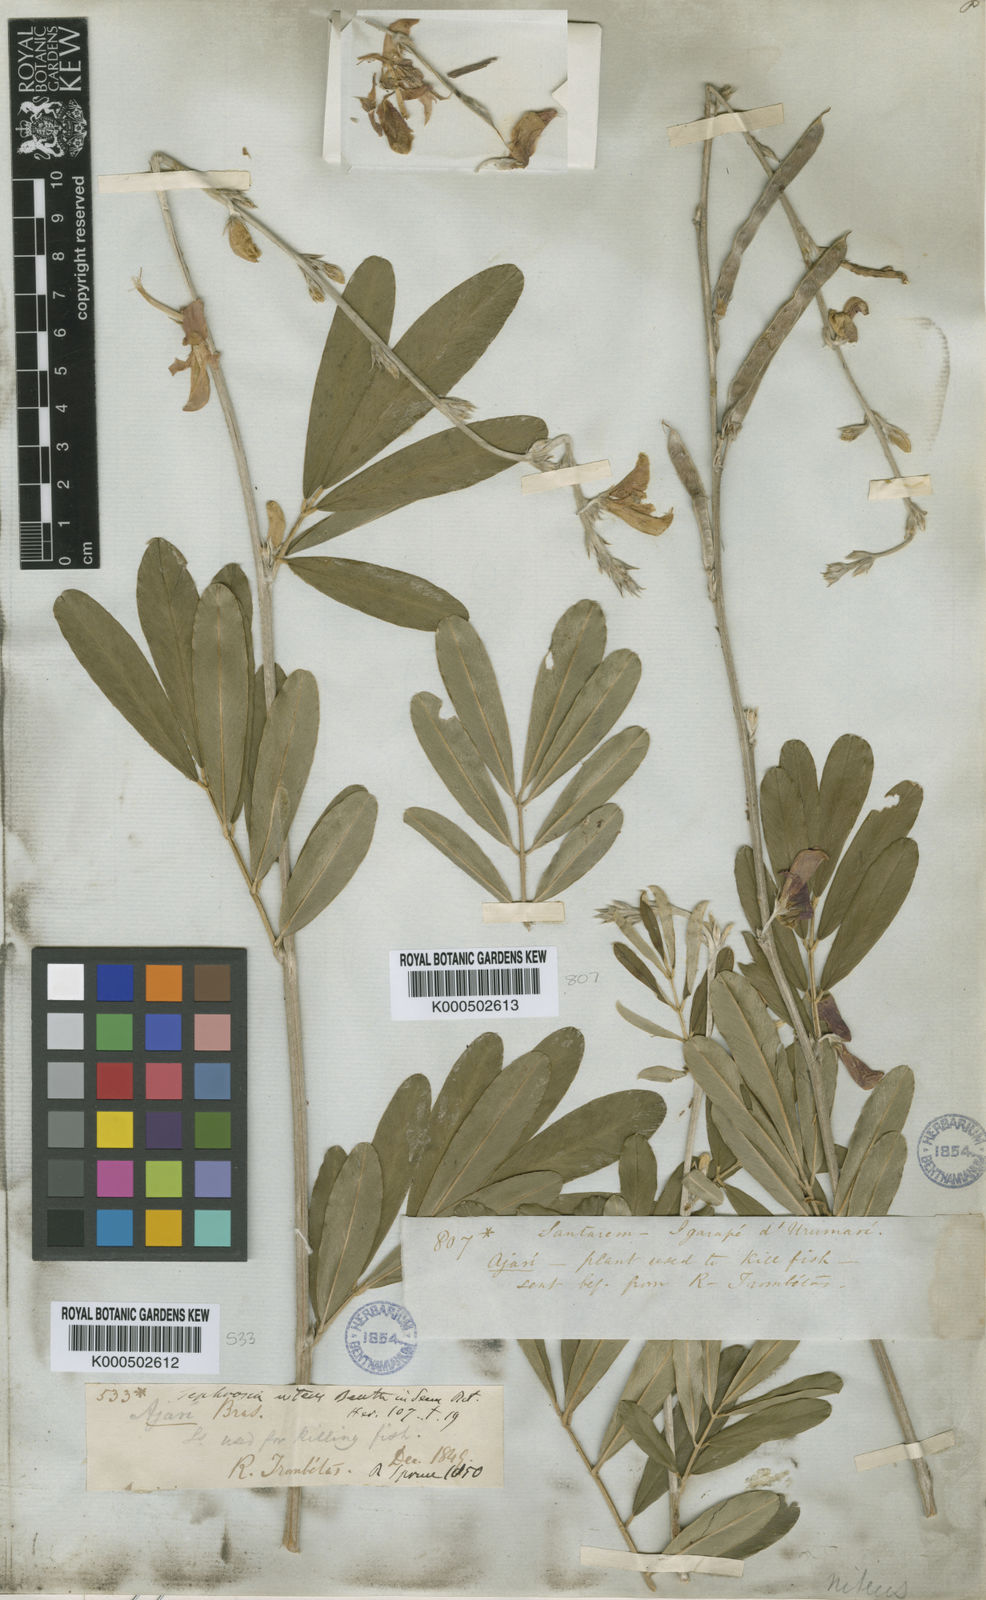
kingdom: Plantae
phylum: Tracheophyta
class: Magnoliopsida
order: Fabales
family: Fabaceae
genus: Tephrosia
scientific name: Tephrosia
